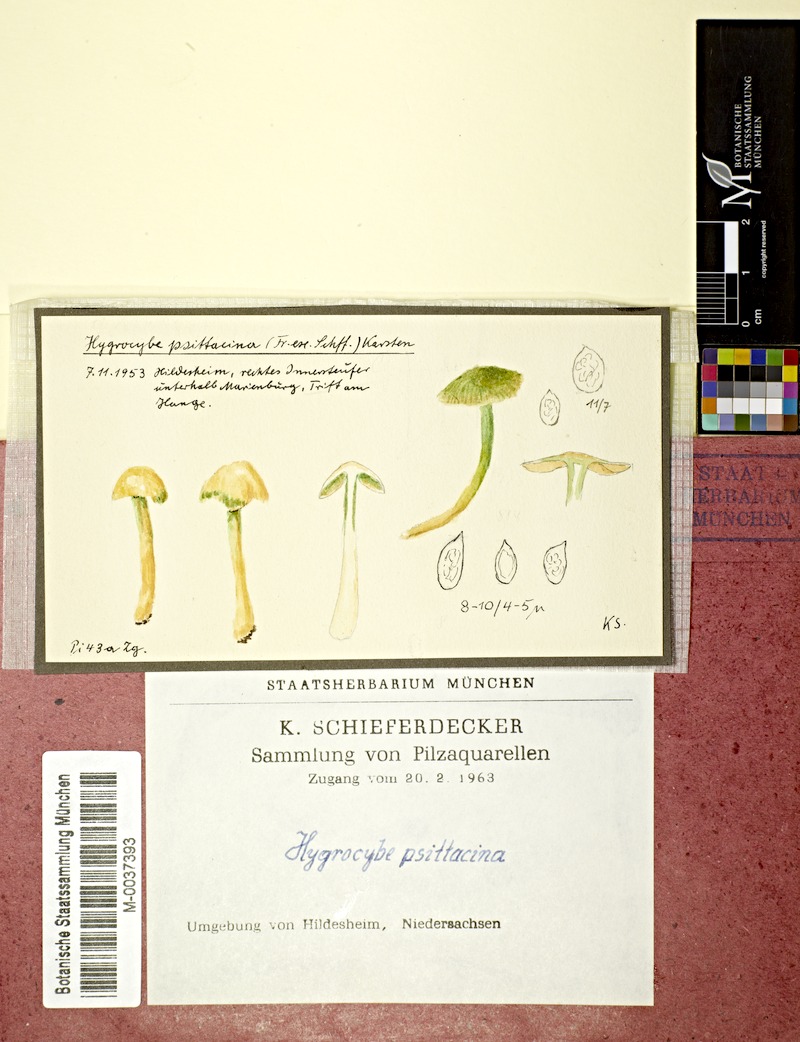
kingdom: Fungi
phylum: Basidiomycota
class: Agaricomycetes
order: Agaricales
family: Hygrophoraceae
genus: Gliophorus
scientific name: Gliophorus psittacinus
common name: Parrot wax-cap
